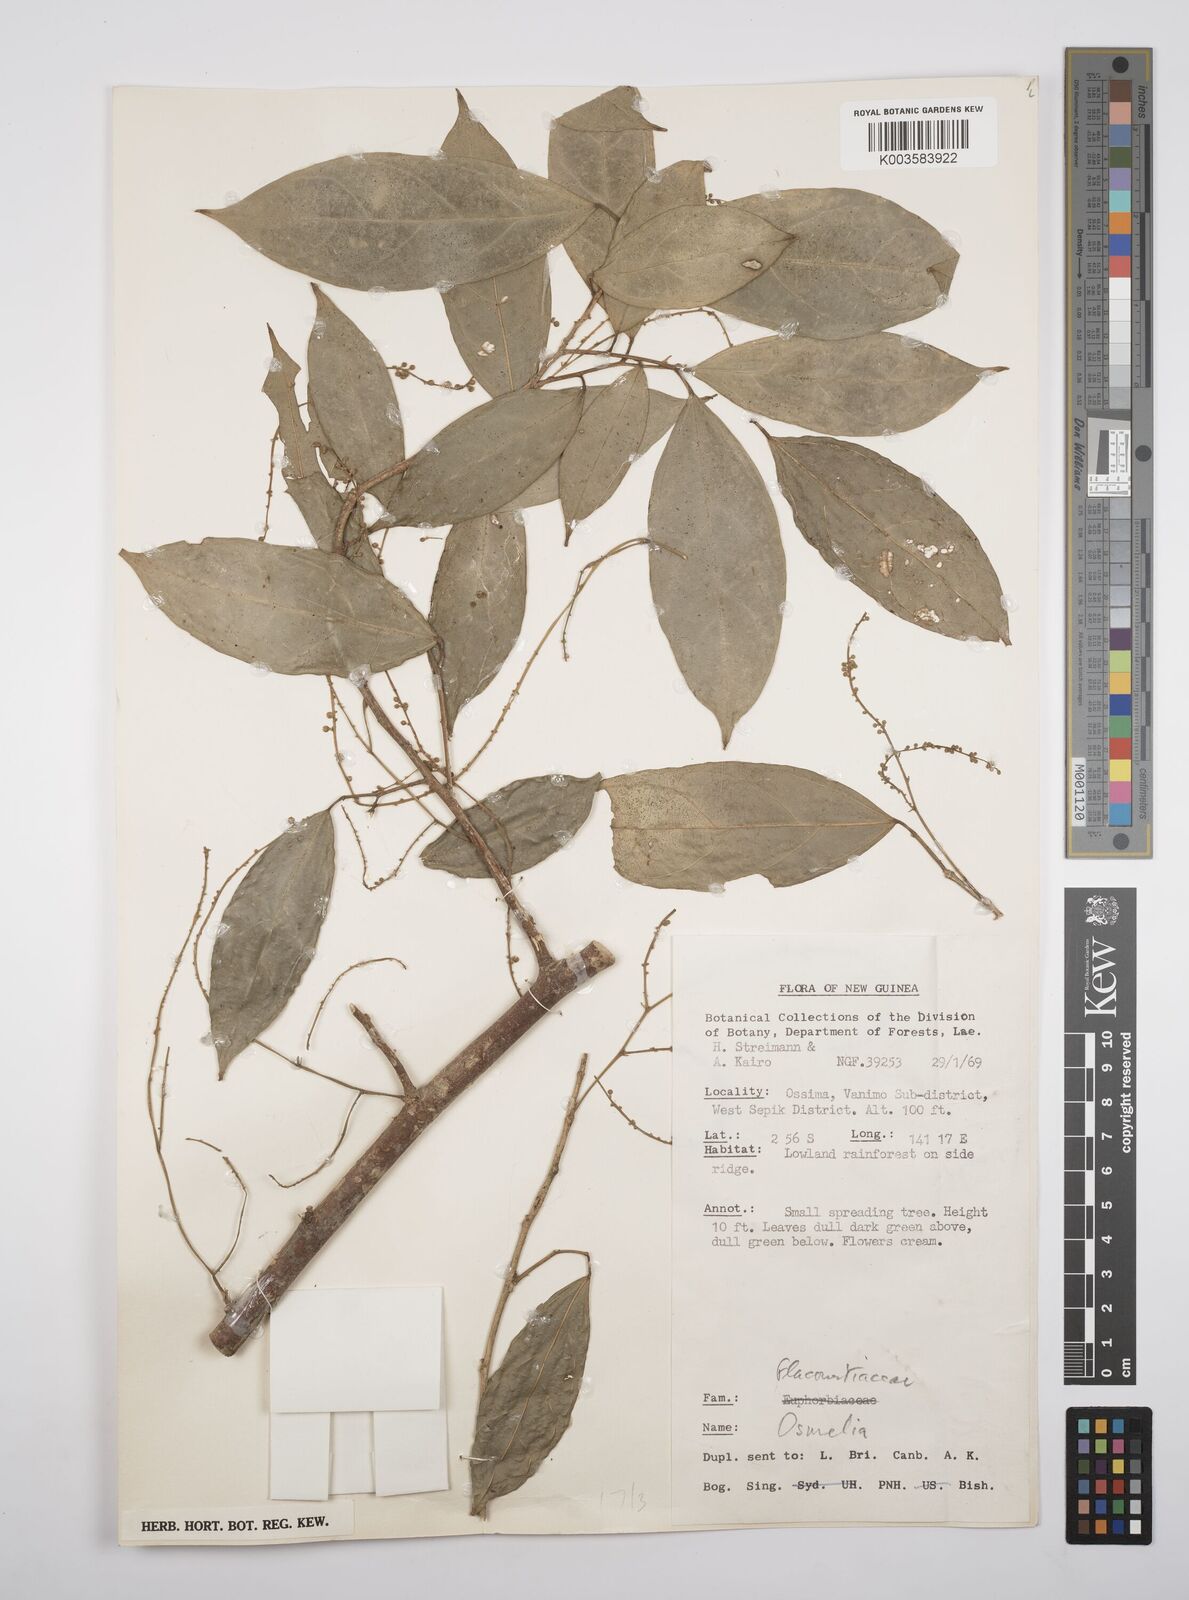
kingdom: Plantae
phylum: Tracheophyta
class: Magnoliopsida
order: Malpighiales
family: Salicaceae
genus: Osmelia
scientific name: Osmelia philippina
